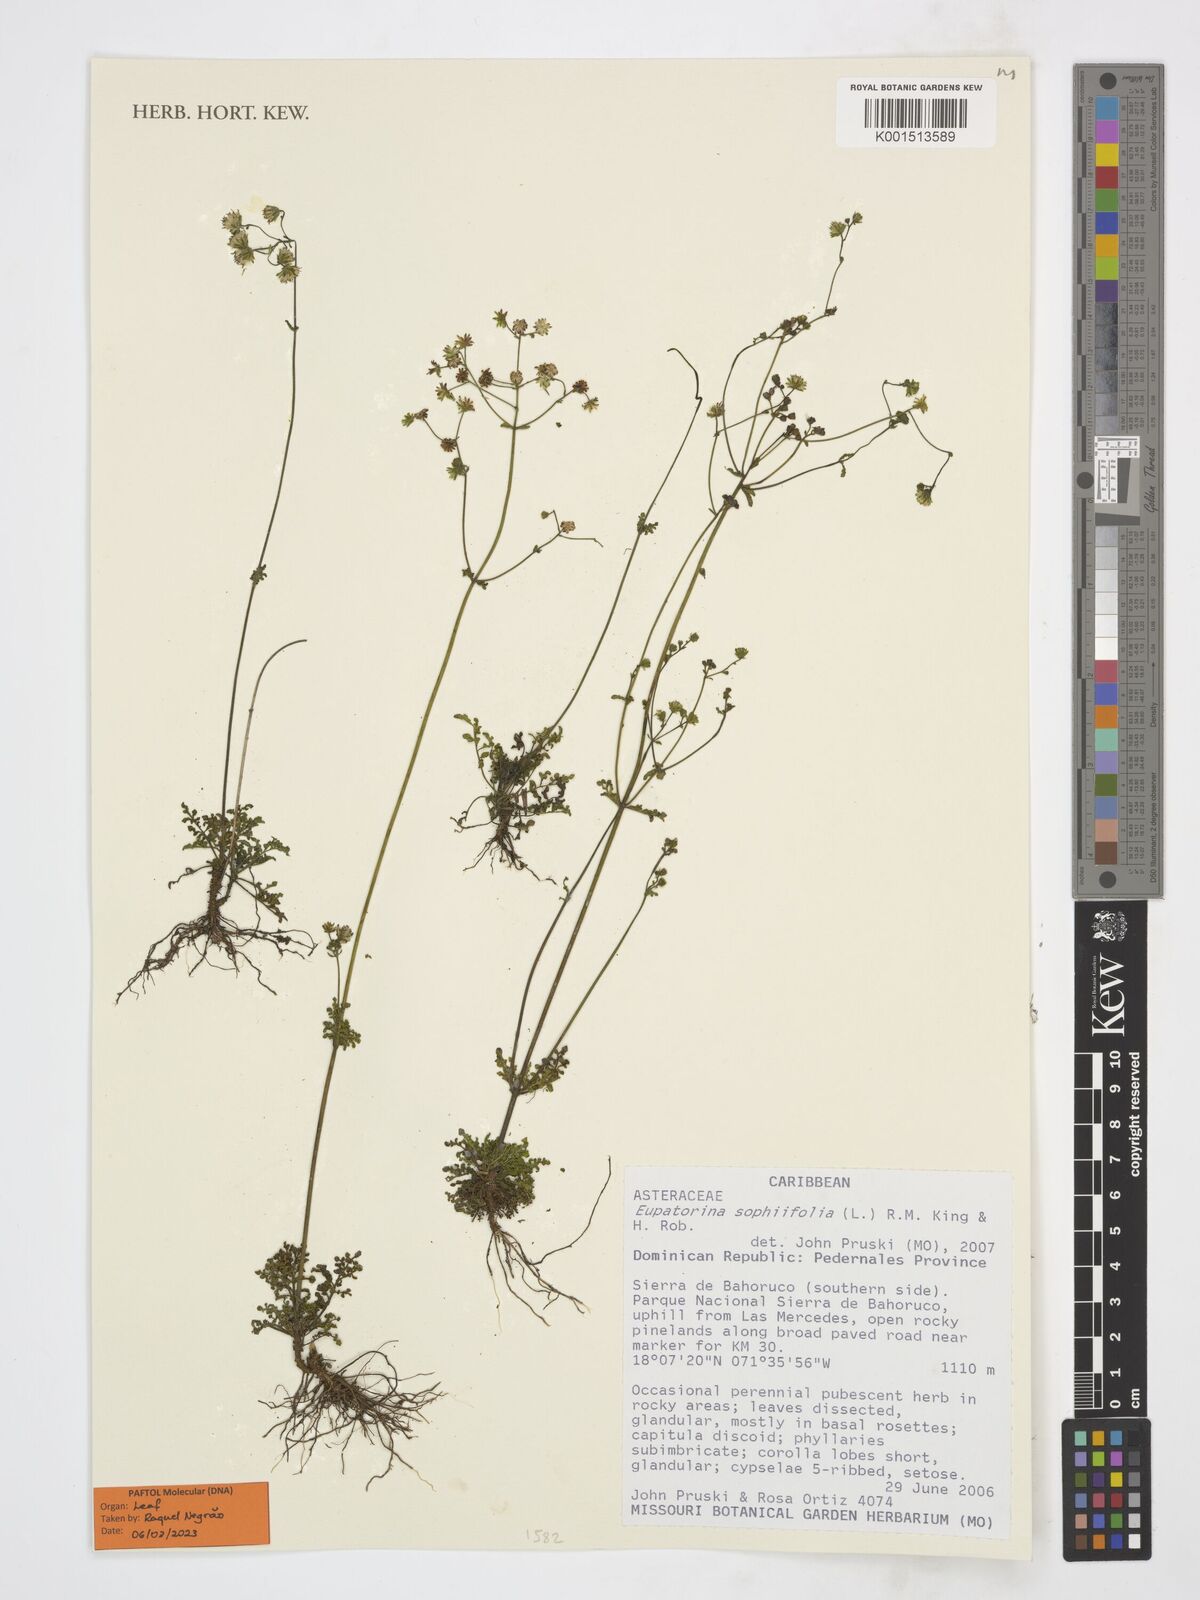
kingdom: Plantae
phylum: Tracheophyta
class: Magnoliopsida
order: Asterales
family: Asteraceae
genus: Eupatorina
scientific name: Eupatorina sophiifolia
